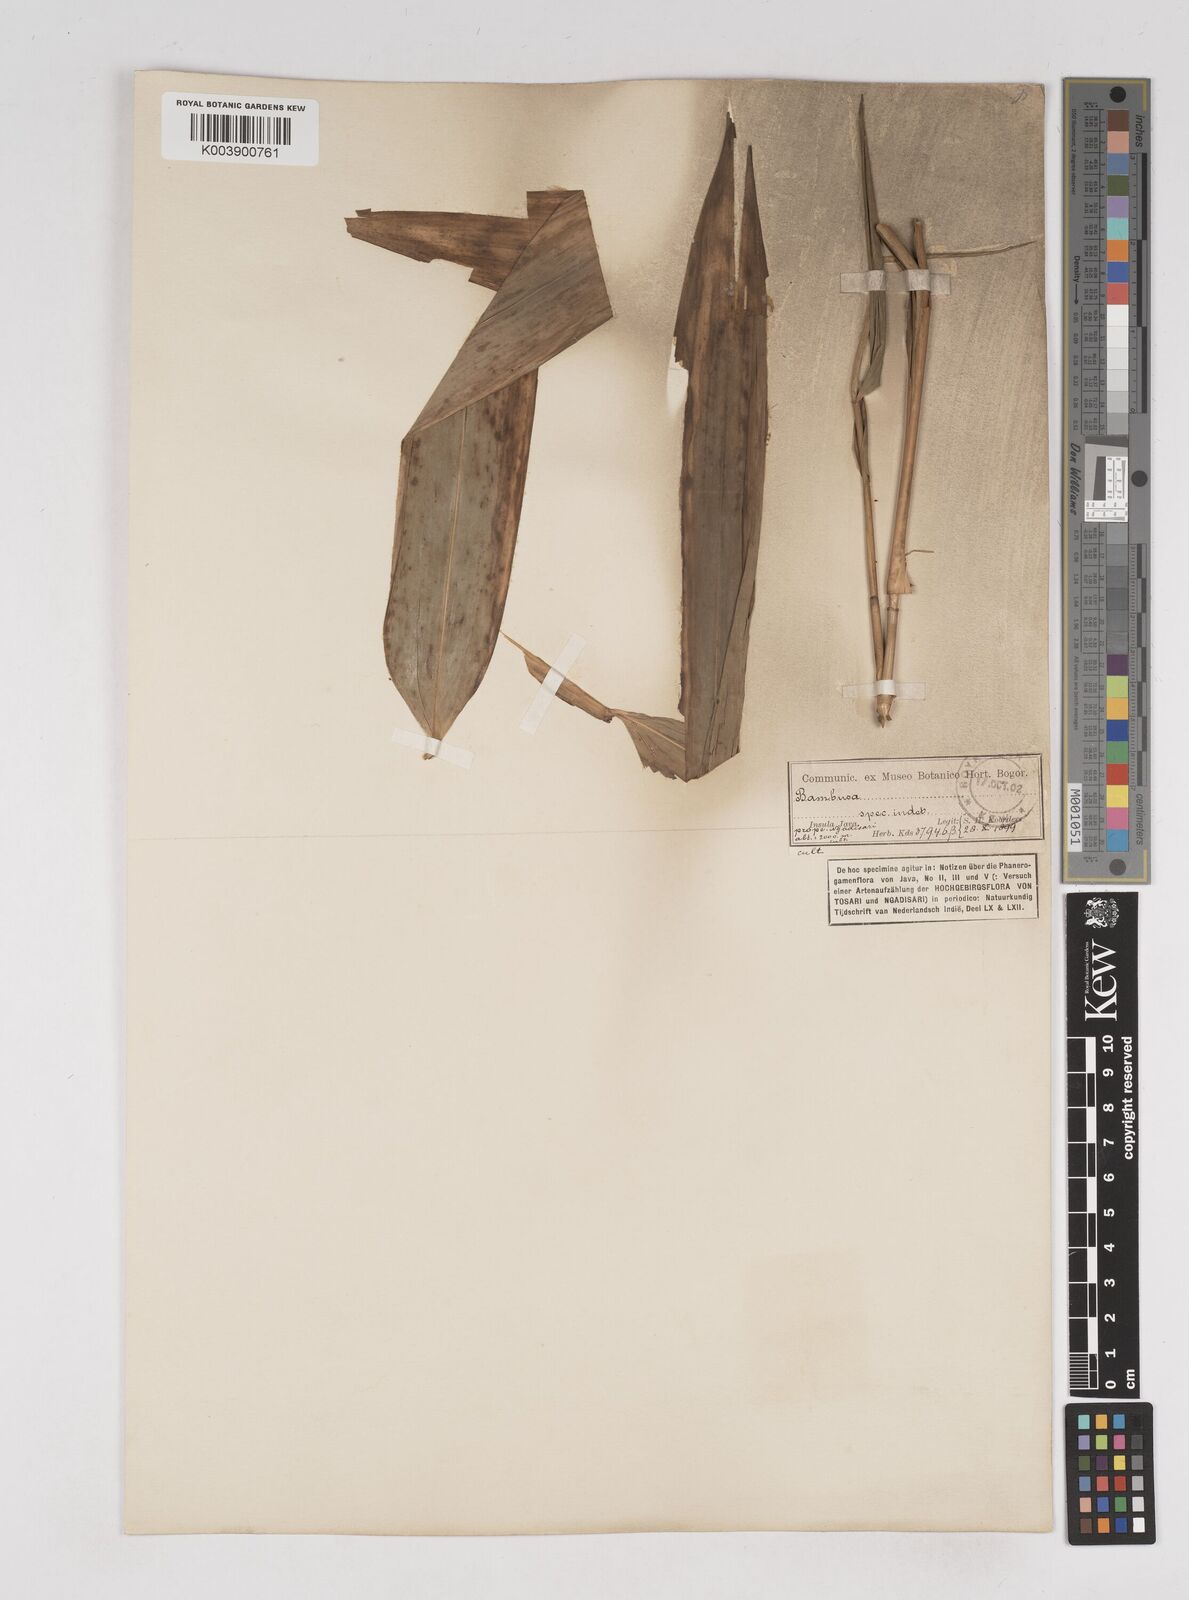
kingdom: Plantae
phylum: Tracheophyta
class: Liliopsida
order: Poales
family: Poaceae
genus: Gigantochloa
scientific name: Gigantochloa
